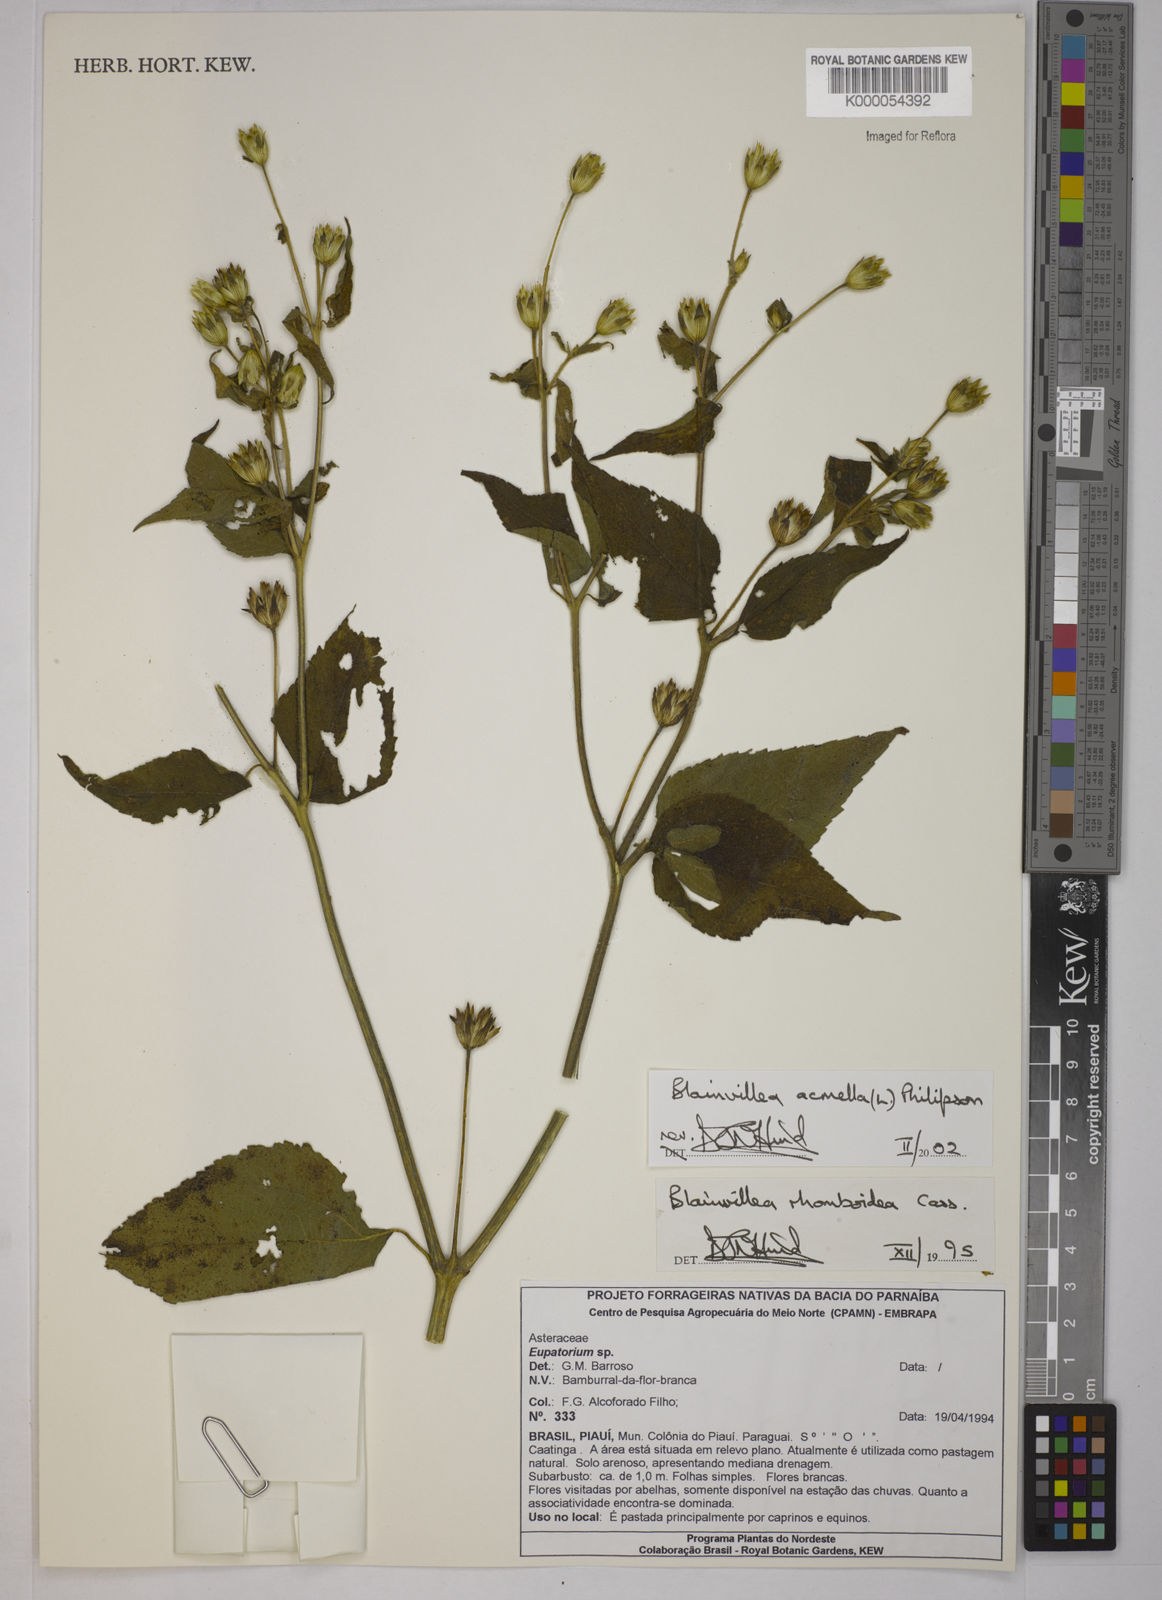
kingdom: Plantae
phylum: Tracheophyta
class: Magnoliopsida
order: Asterales
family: Asteraceae
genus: Blainvillea
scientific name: Blainvillea acmella
